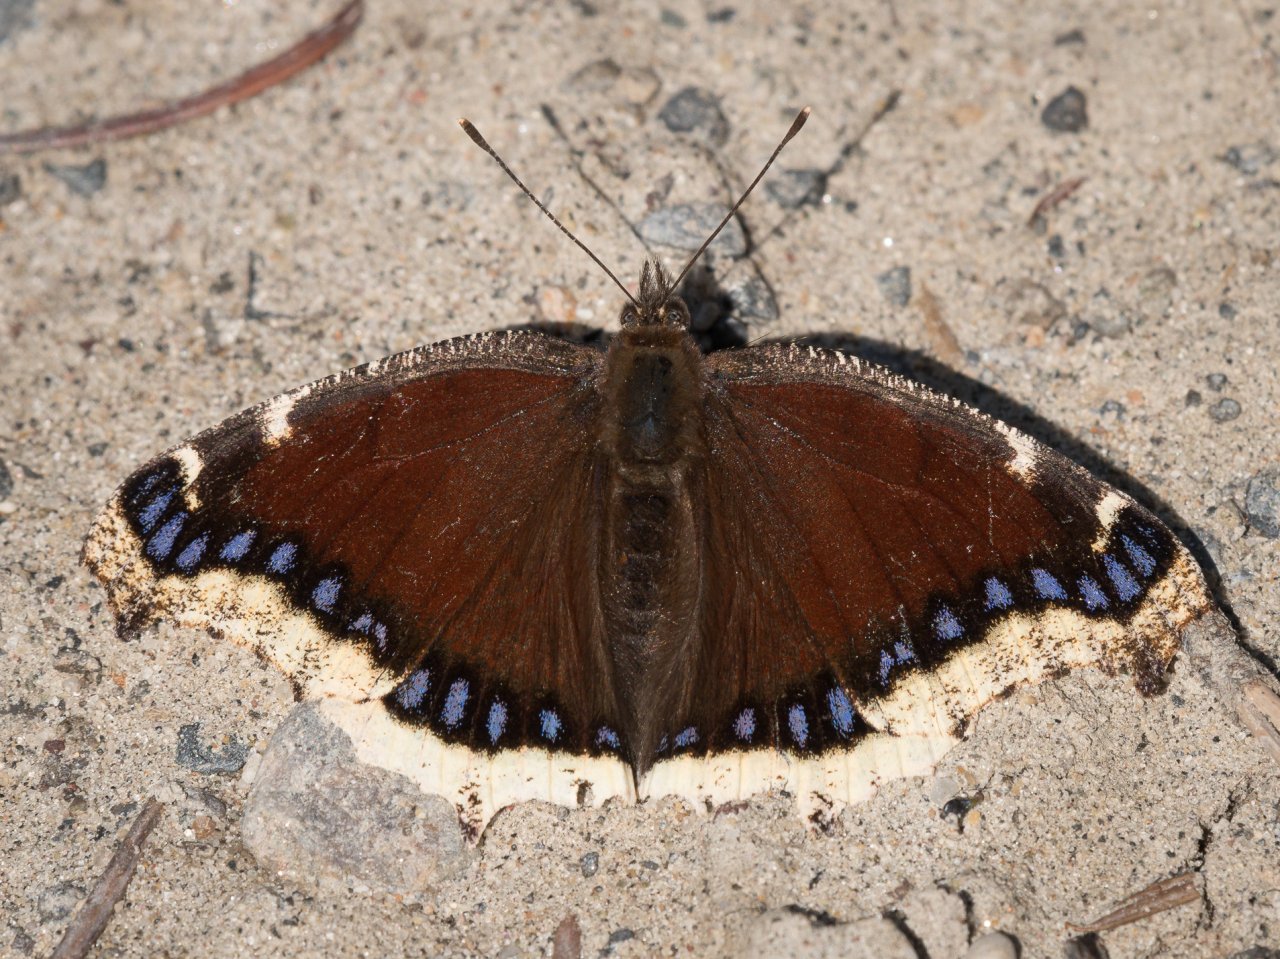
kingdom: Animalia
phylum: Arthropoda
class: Insecta
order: Lepidoptera
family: Nymphalidae
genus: Nymphalis
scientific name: Nymphalis antiopa
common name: Mourning Cloak
